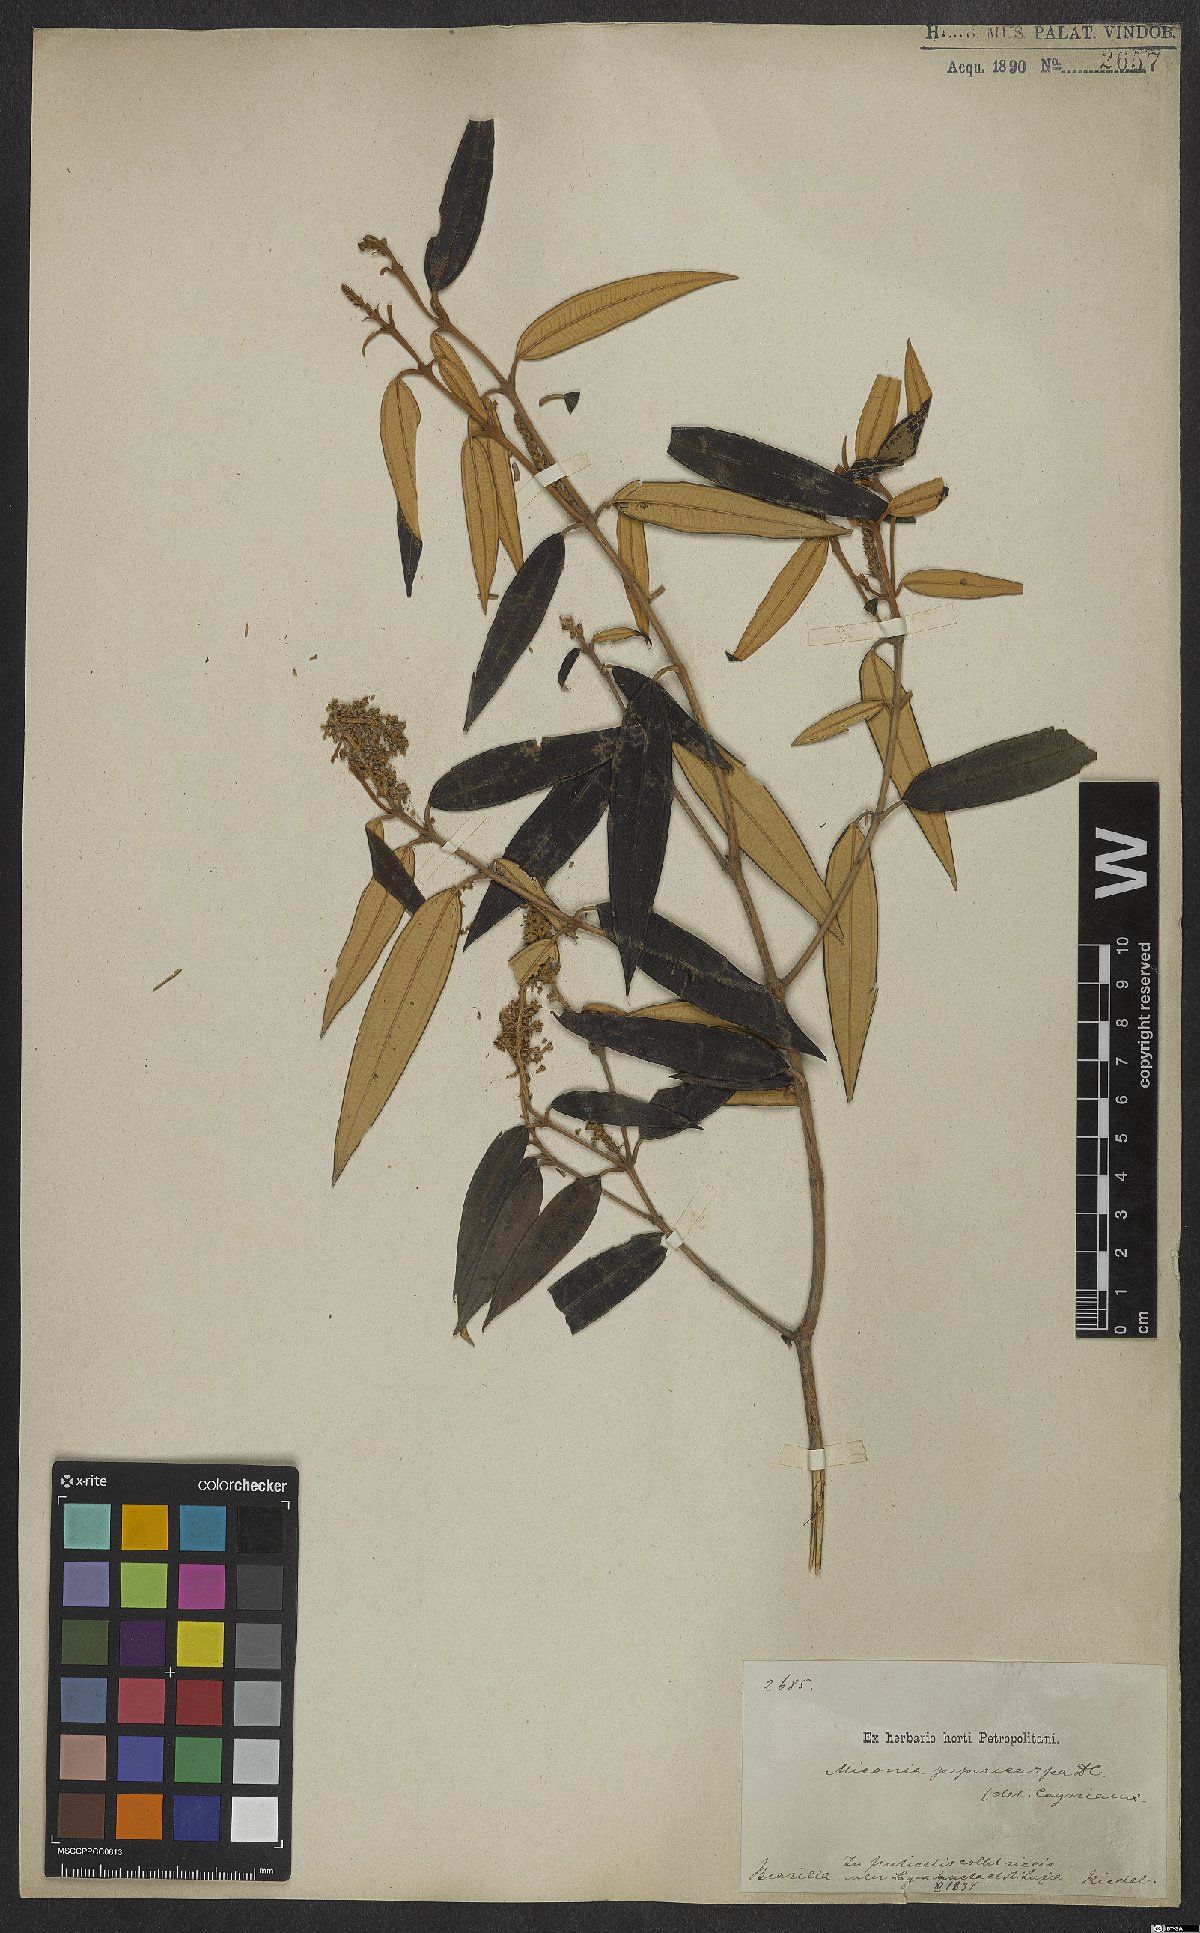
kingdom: Plantae
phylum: Tracheophyta
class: Magnoliopsida
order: Myrtales
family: Melastomataceae
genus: Miconia
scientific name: Miconia pepericarpa
